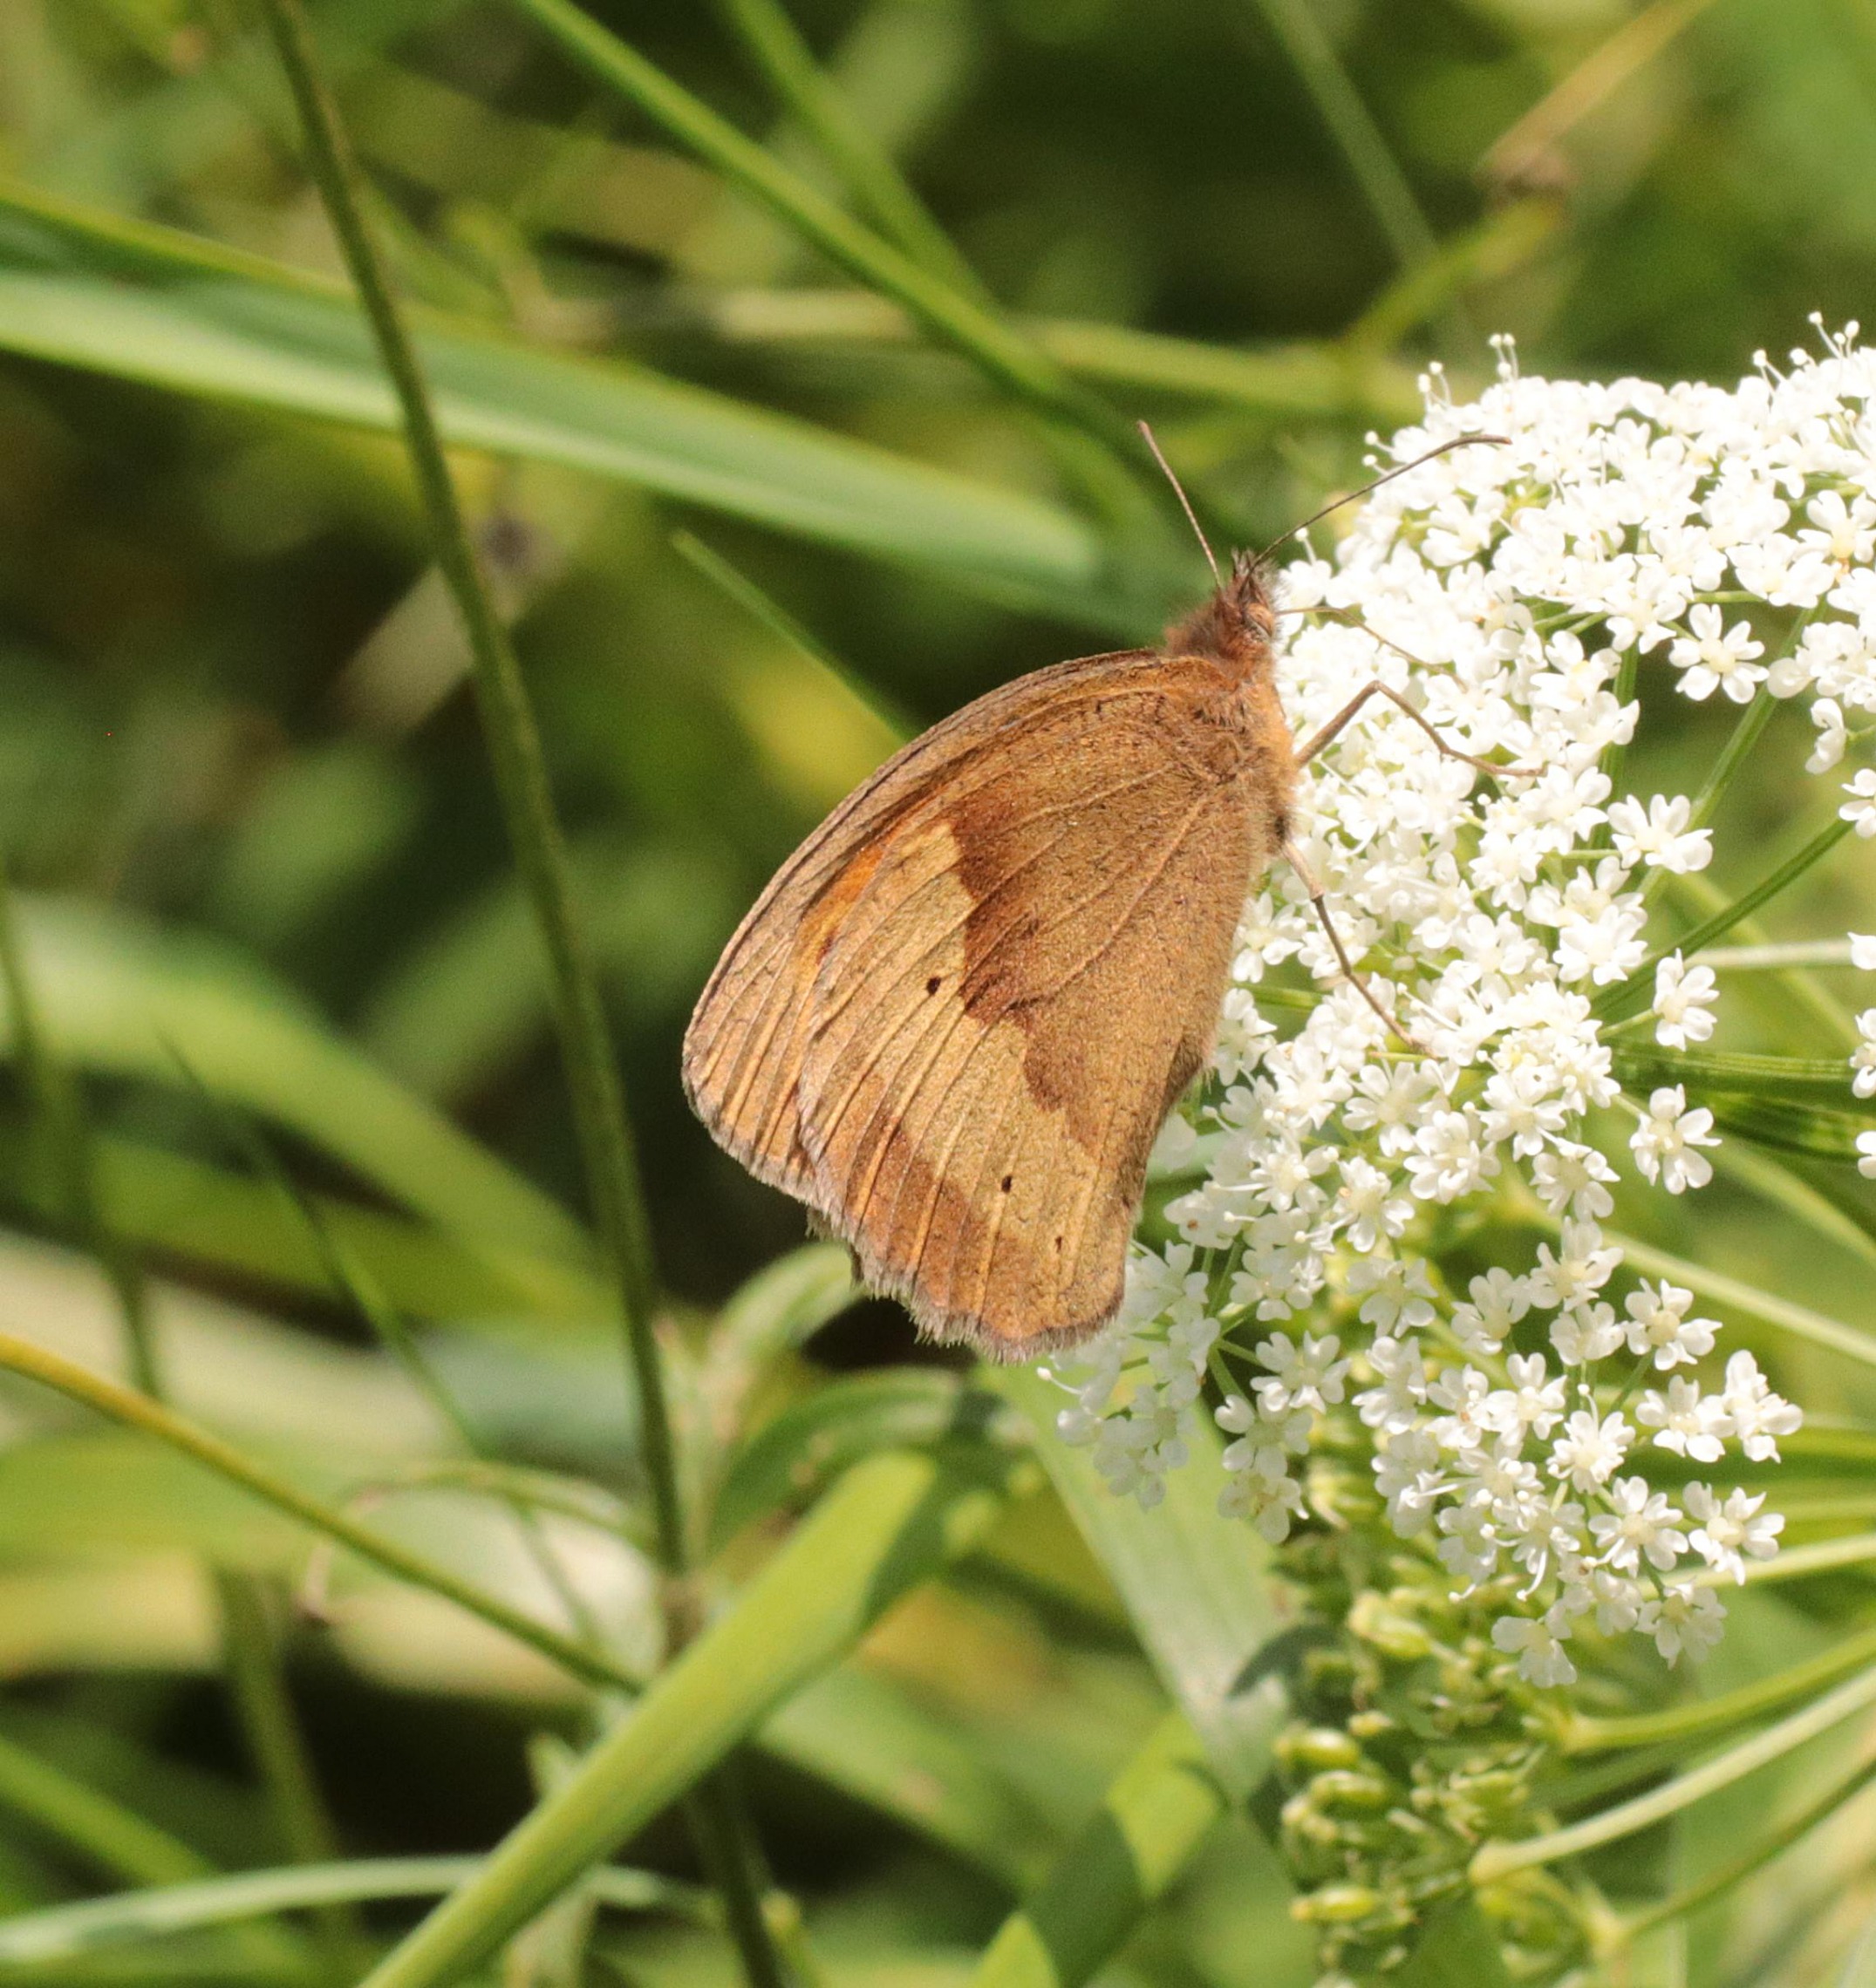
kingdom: Animalia
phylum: Arthropoda
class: Insecta
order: Lepidoptera
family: Nymphalidae
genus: Maniola
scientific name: Maniola jurtina
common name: Græsrandøje
